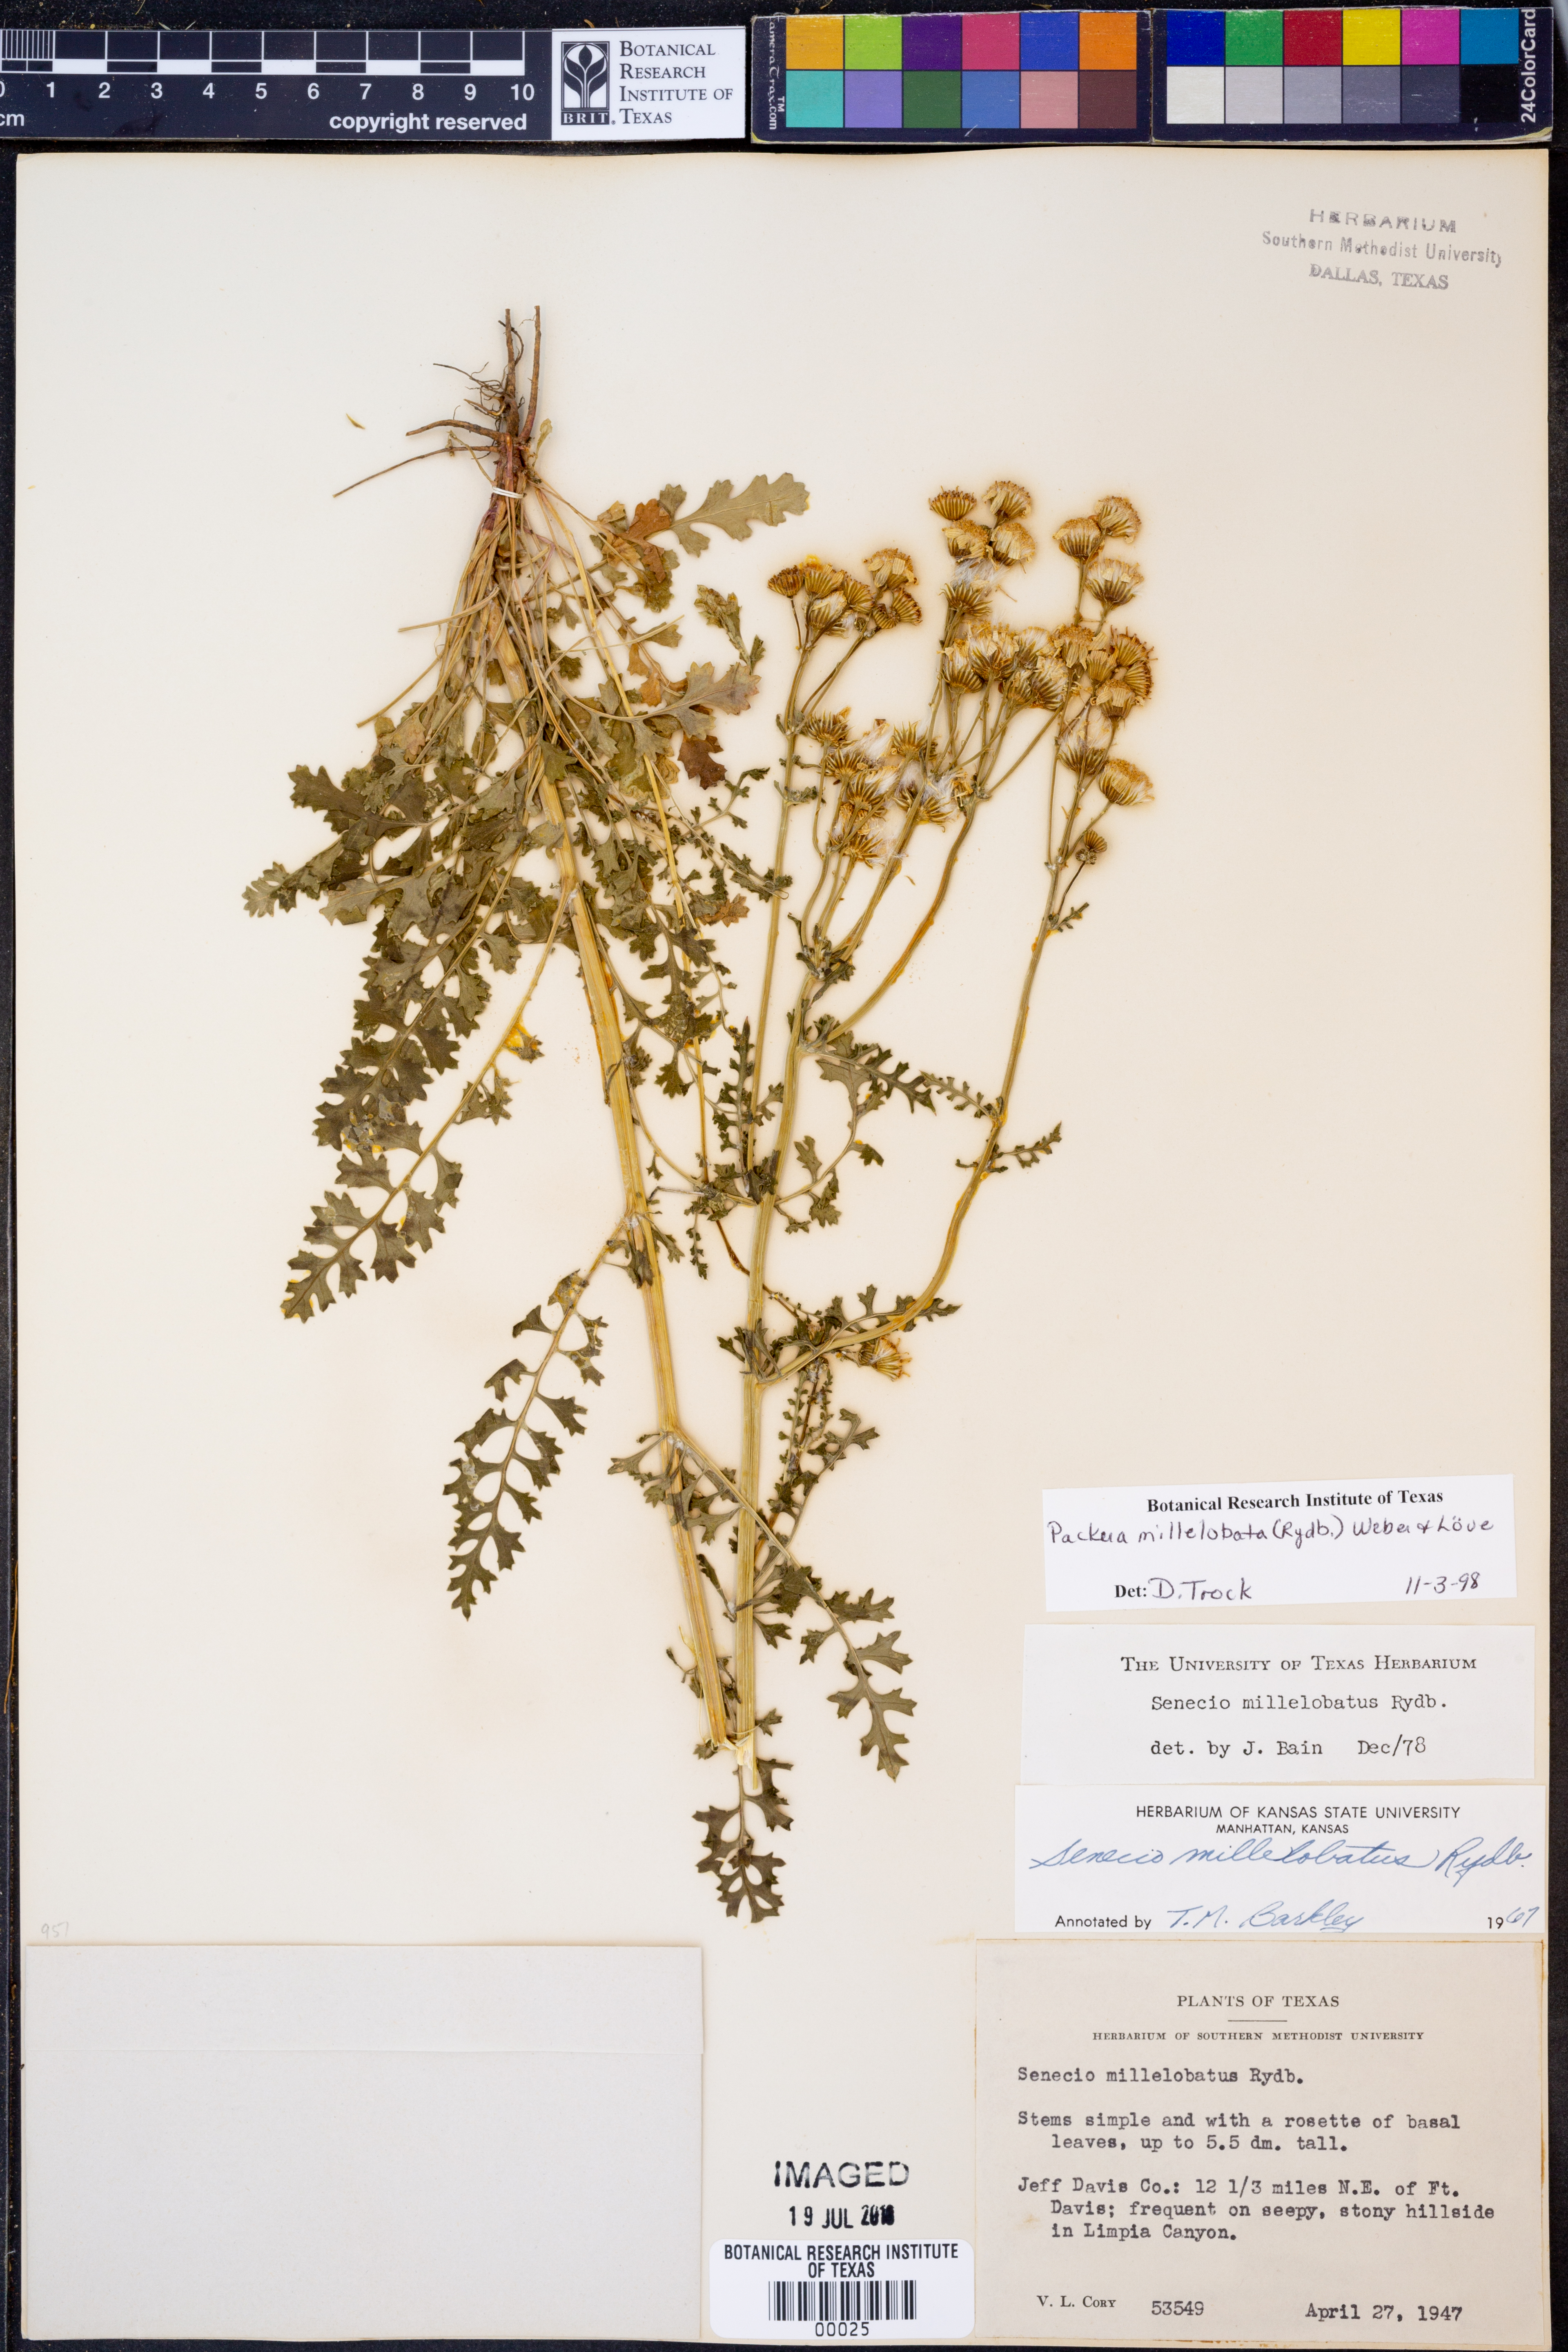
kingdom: Plantae
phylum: Tracheophyta
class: Magnoliopsida
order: Asterales
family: Asteraceae
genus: Packera
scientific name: Packera millelobata
